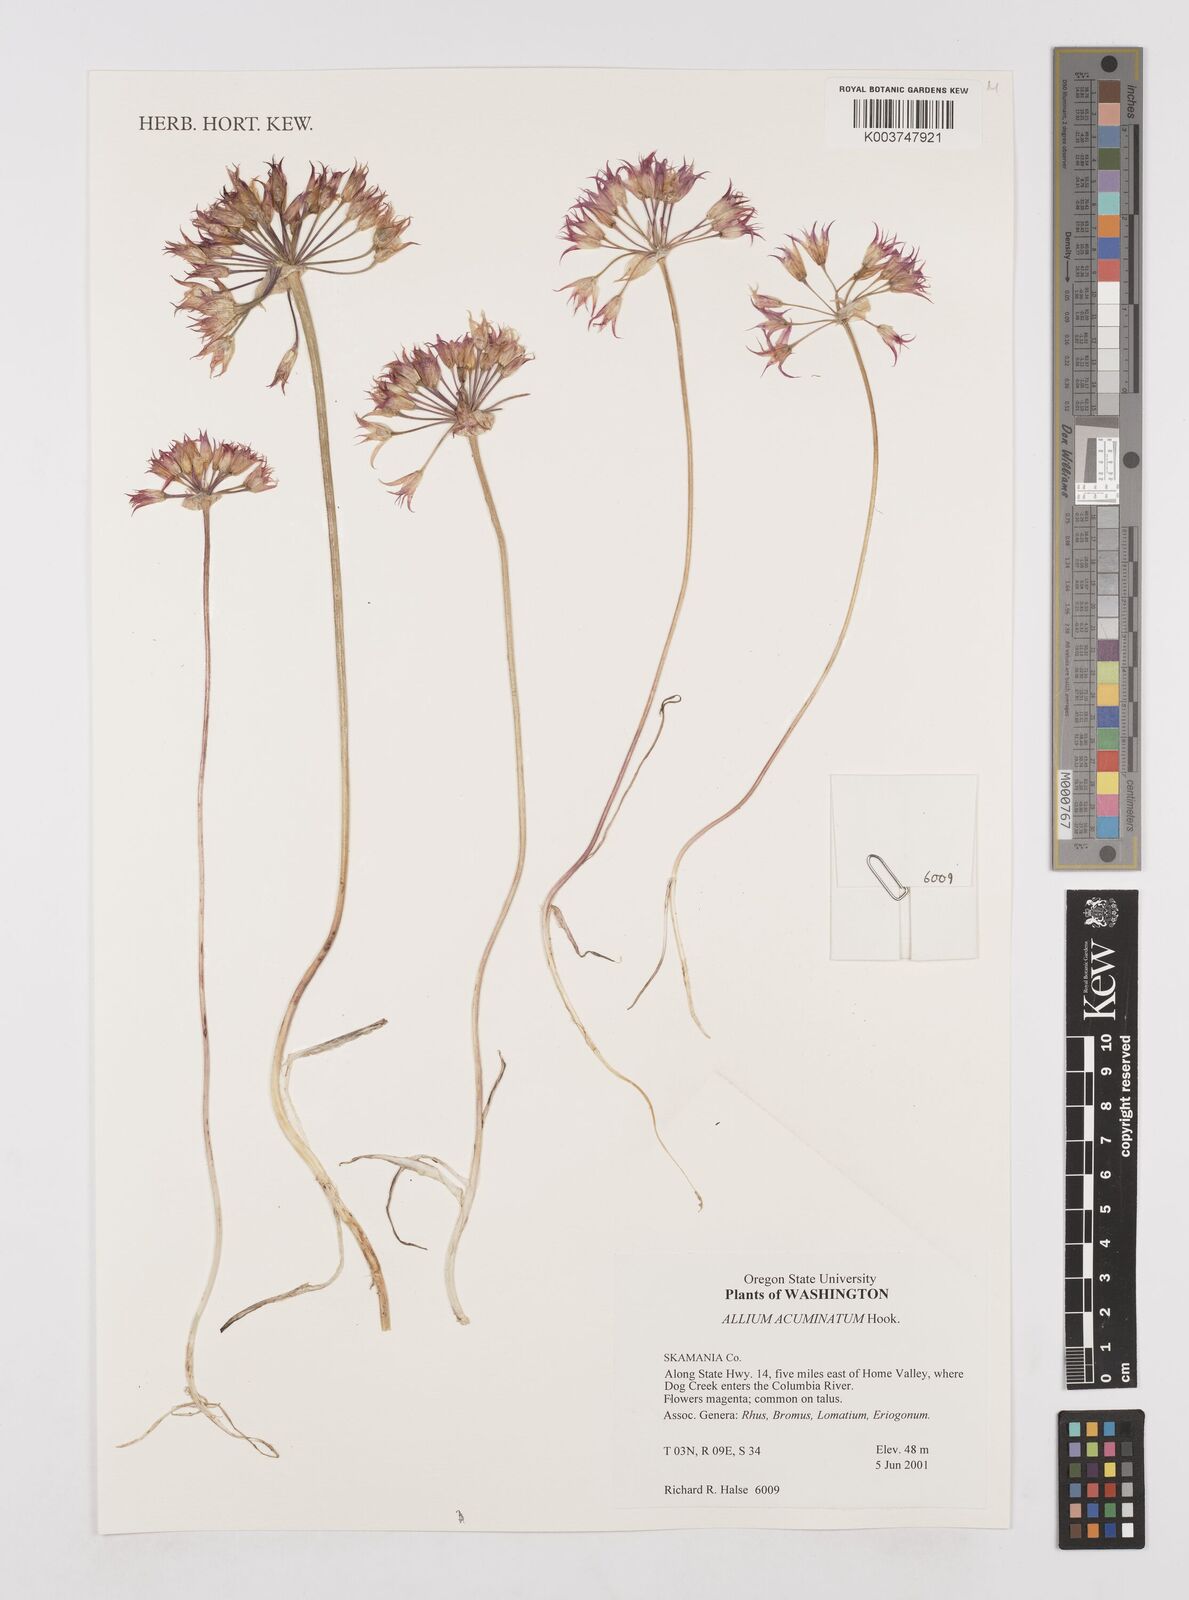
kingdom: Plantae
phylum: Tracheophyta
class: Liliopsida
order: Asparagales
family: Amaryllidaceae
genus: Allium
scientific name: Allium acuminatum
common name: Hooker's onion
